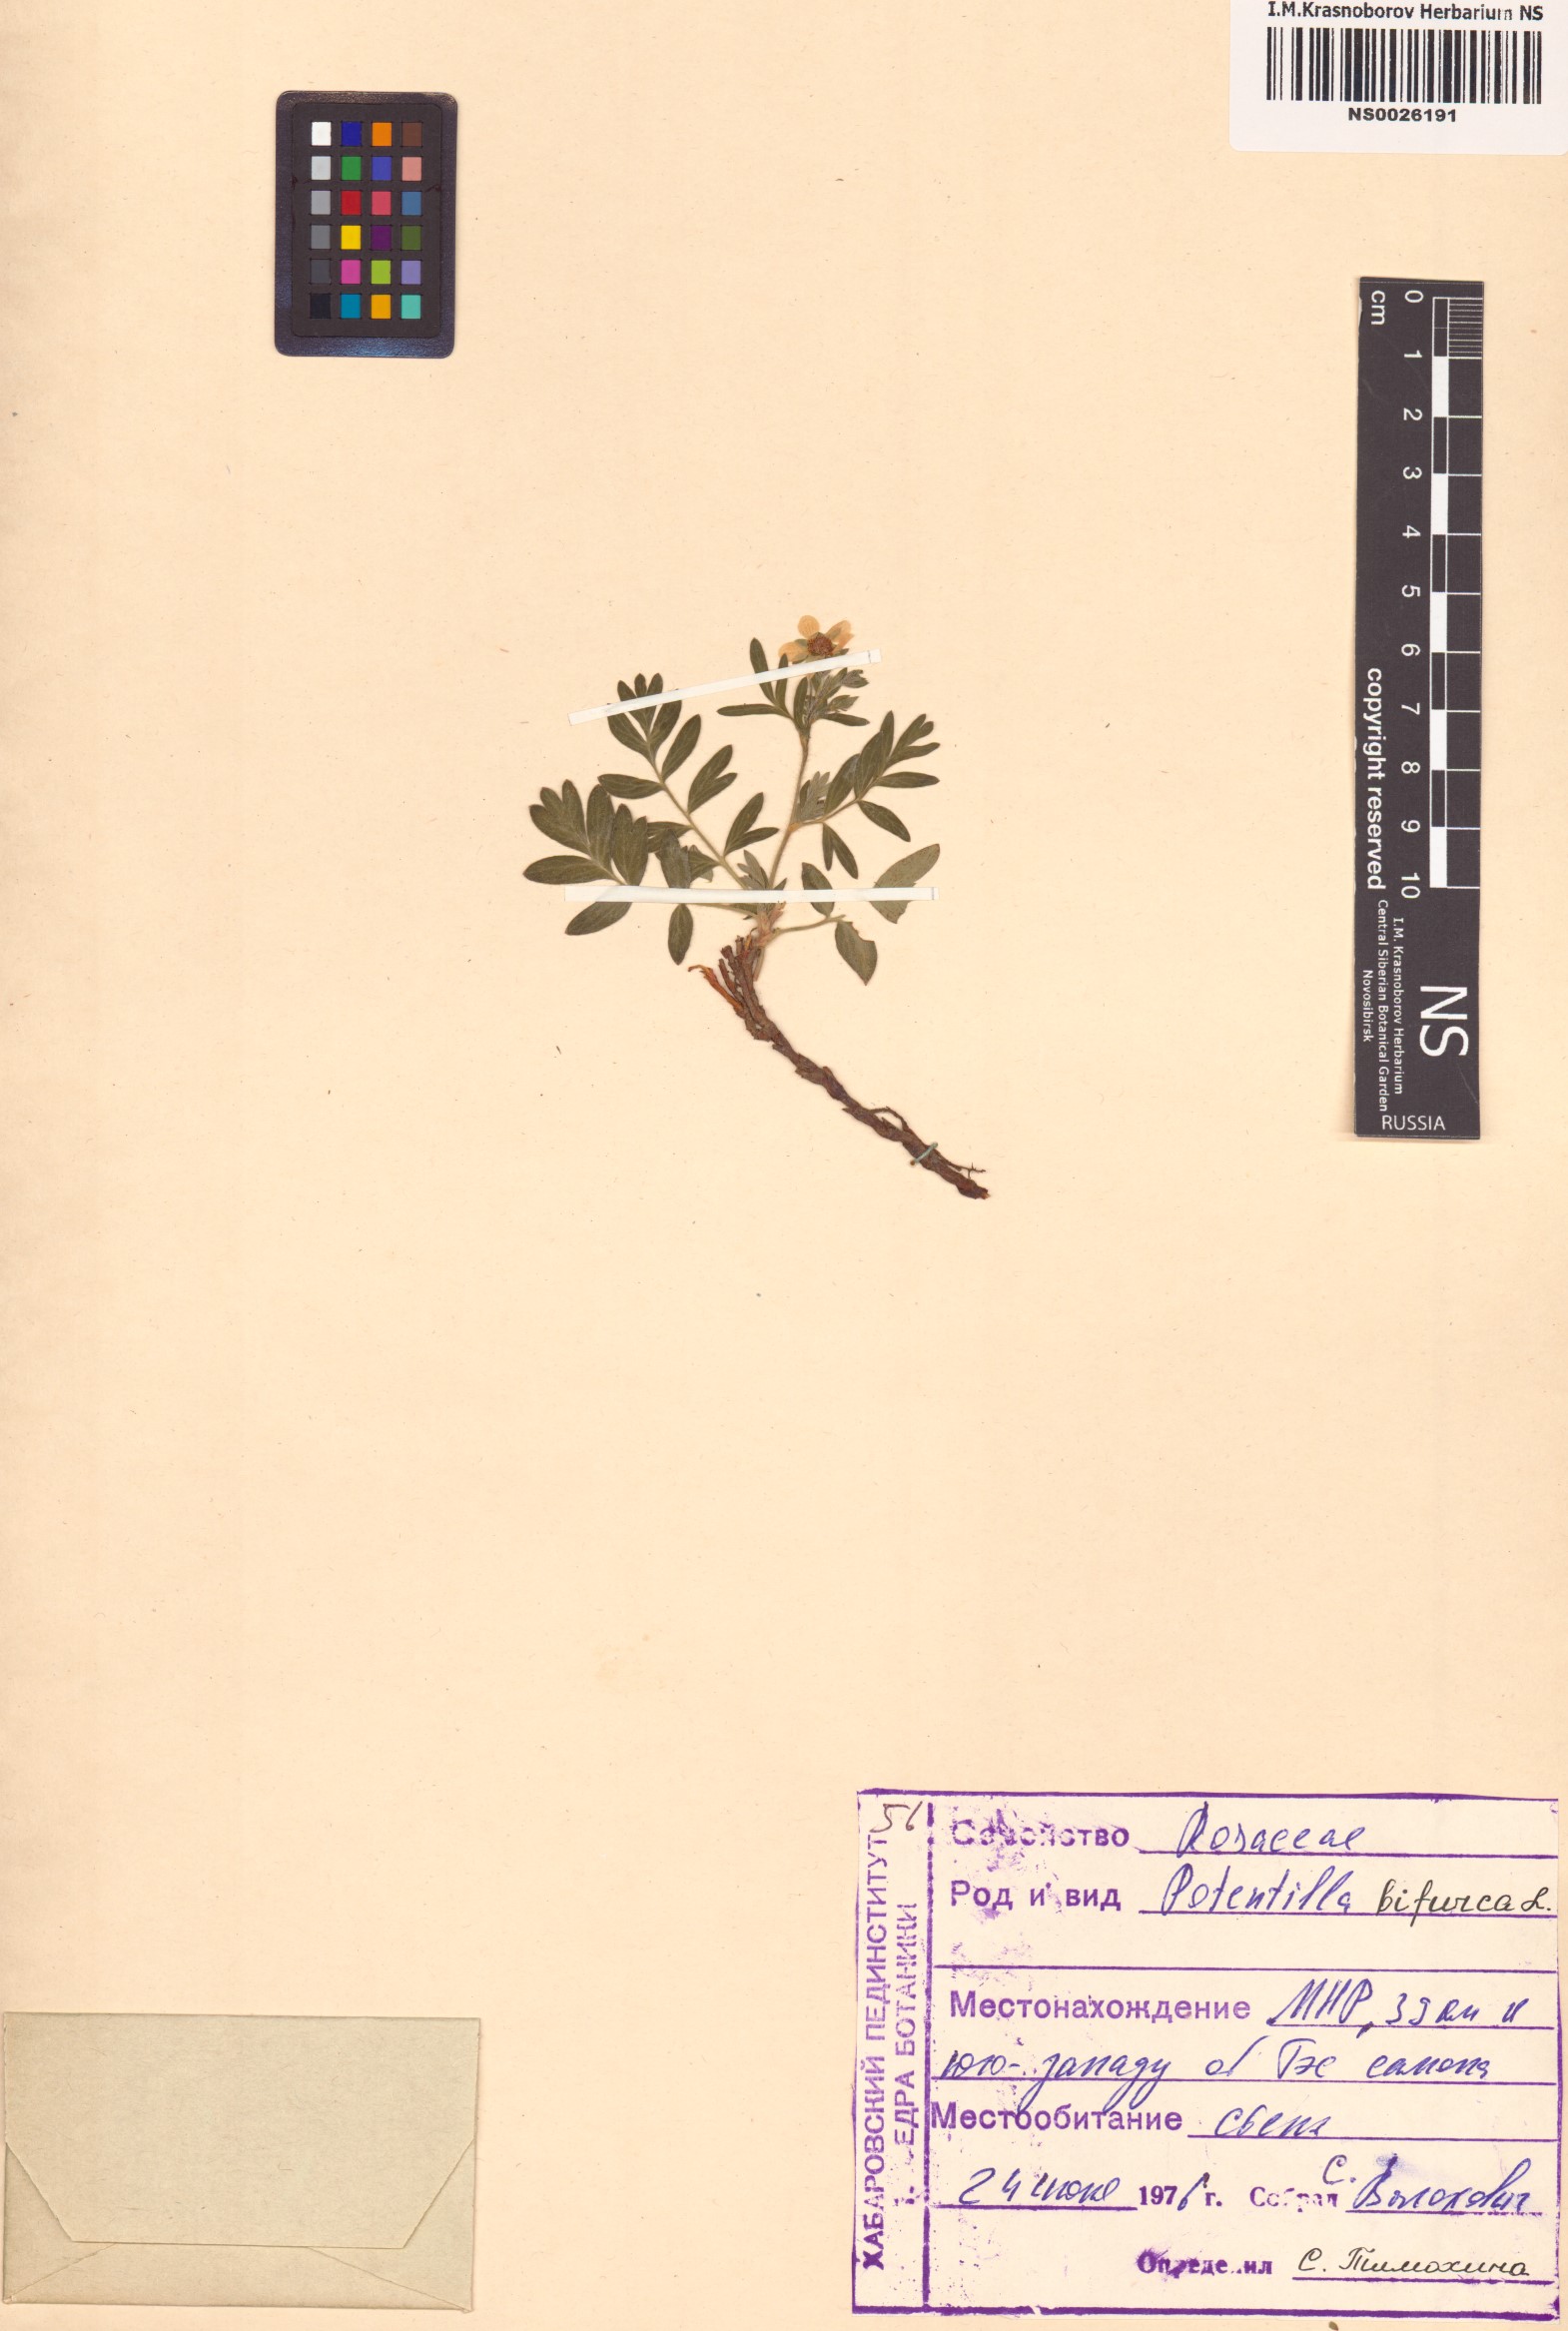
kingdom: Plantae
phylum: Tracheophyta
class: Magnoliopsida
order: Rosales
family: Rosaceae
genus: Sibbaldianthe
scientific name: Sibbaldianthe bifurca
